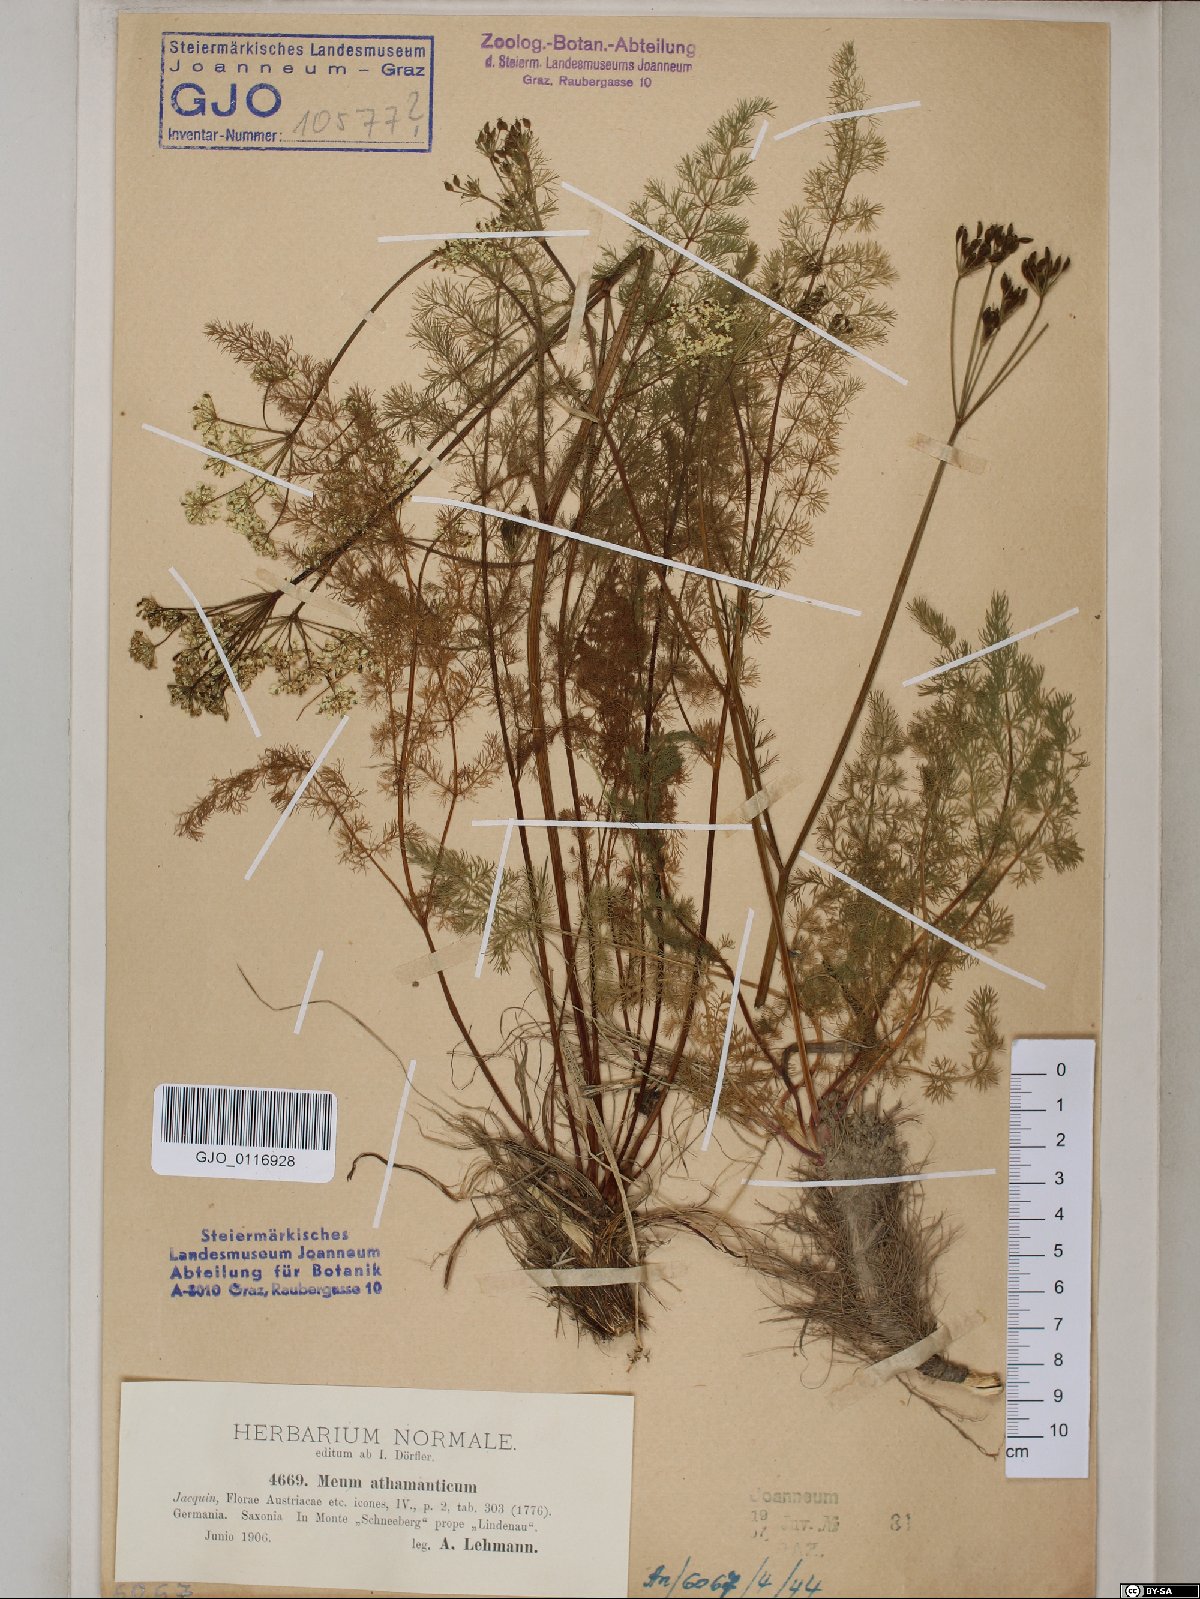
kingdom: Plantae
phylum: Tracheophyta
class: Magnoliopsida
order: Apiales
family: Apiaceae
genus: Meum
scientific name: Meum athamanticum
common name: Spignel
